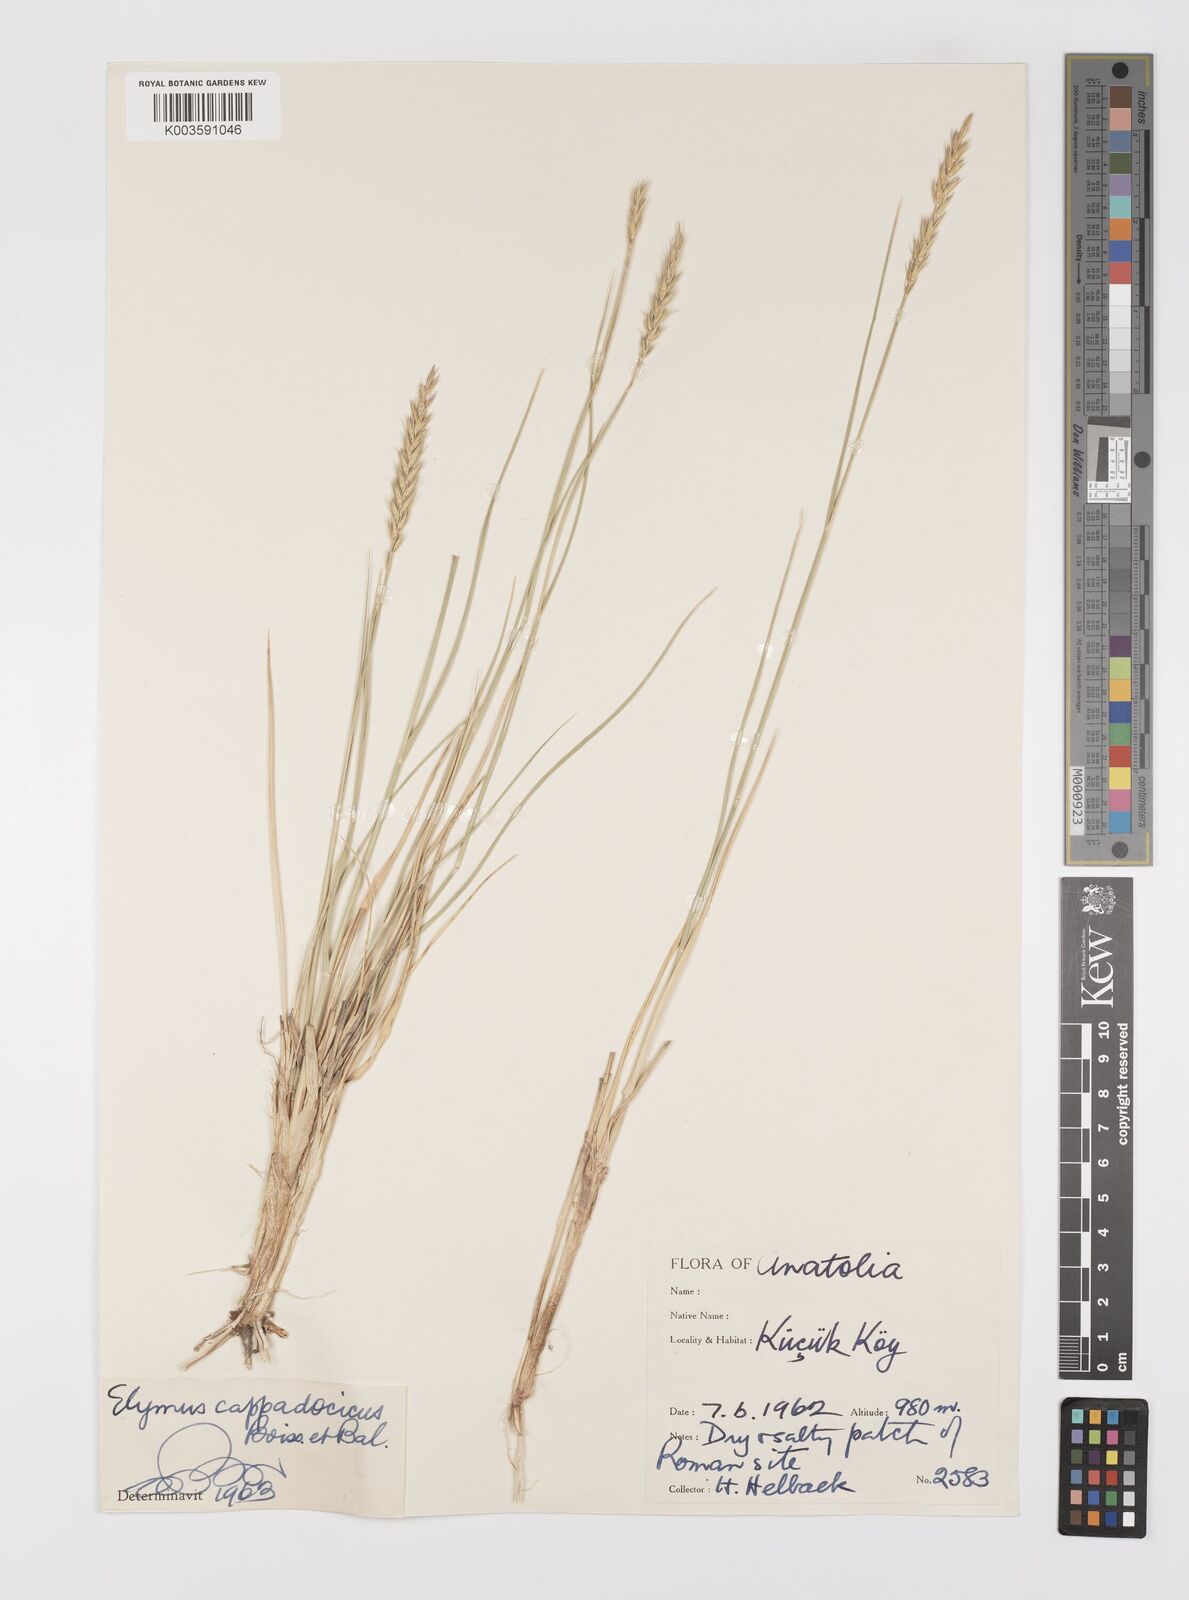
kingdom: Plantae
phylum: Tracheophyta
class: Liliopsida
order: Poales
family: Poaceae
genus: Leymus
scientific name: Leymus cappadocicus
